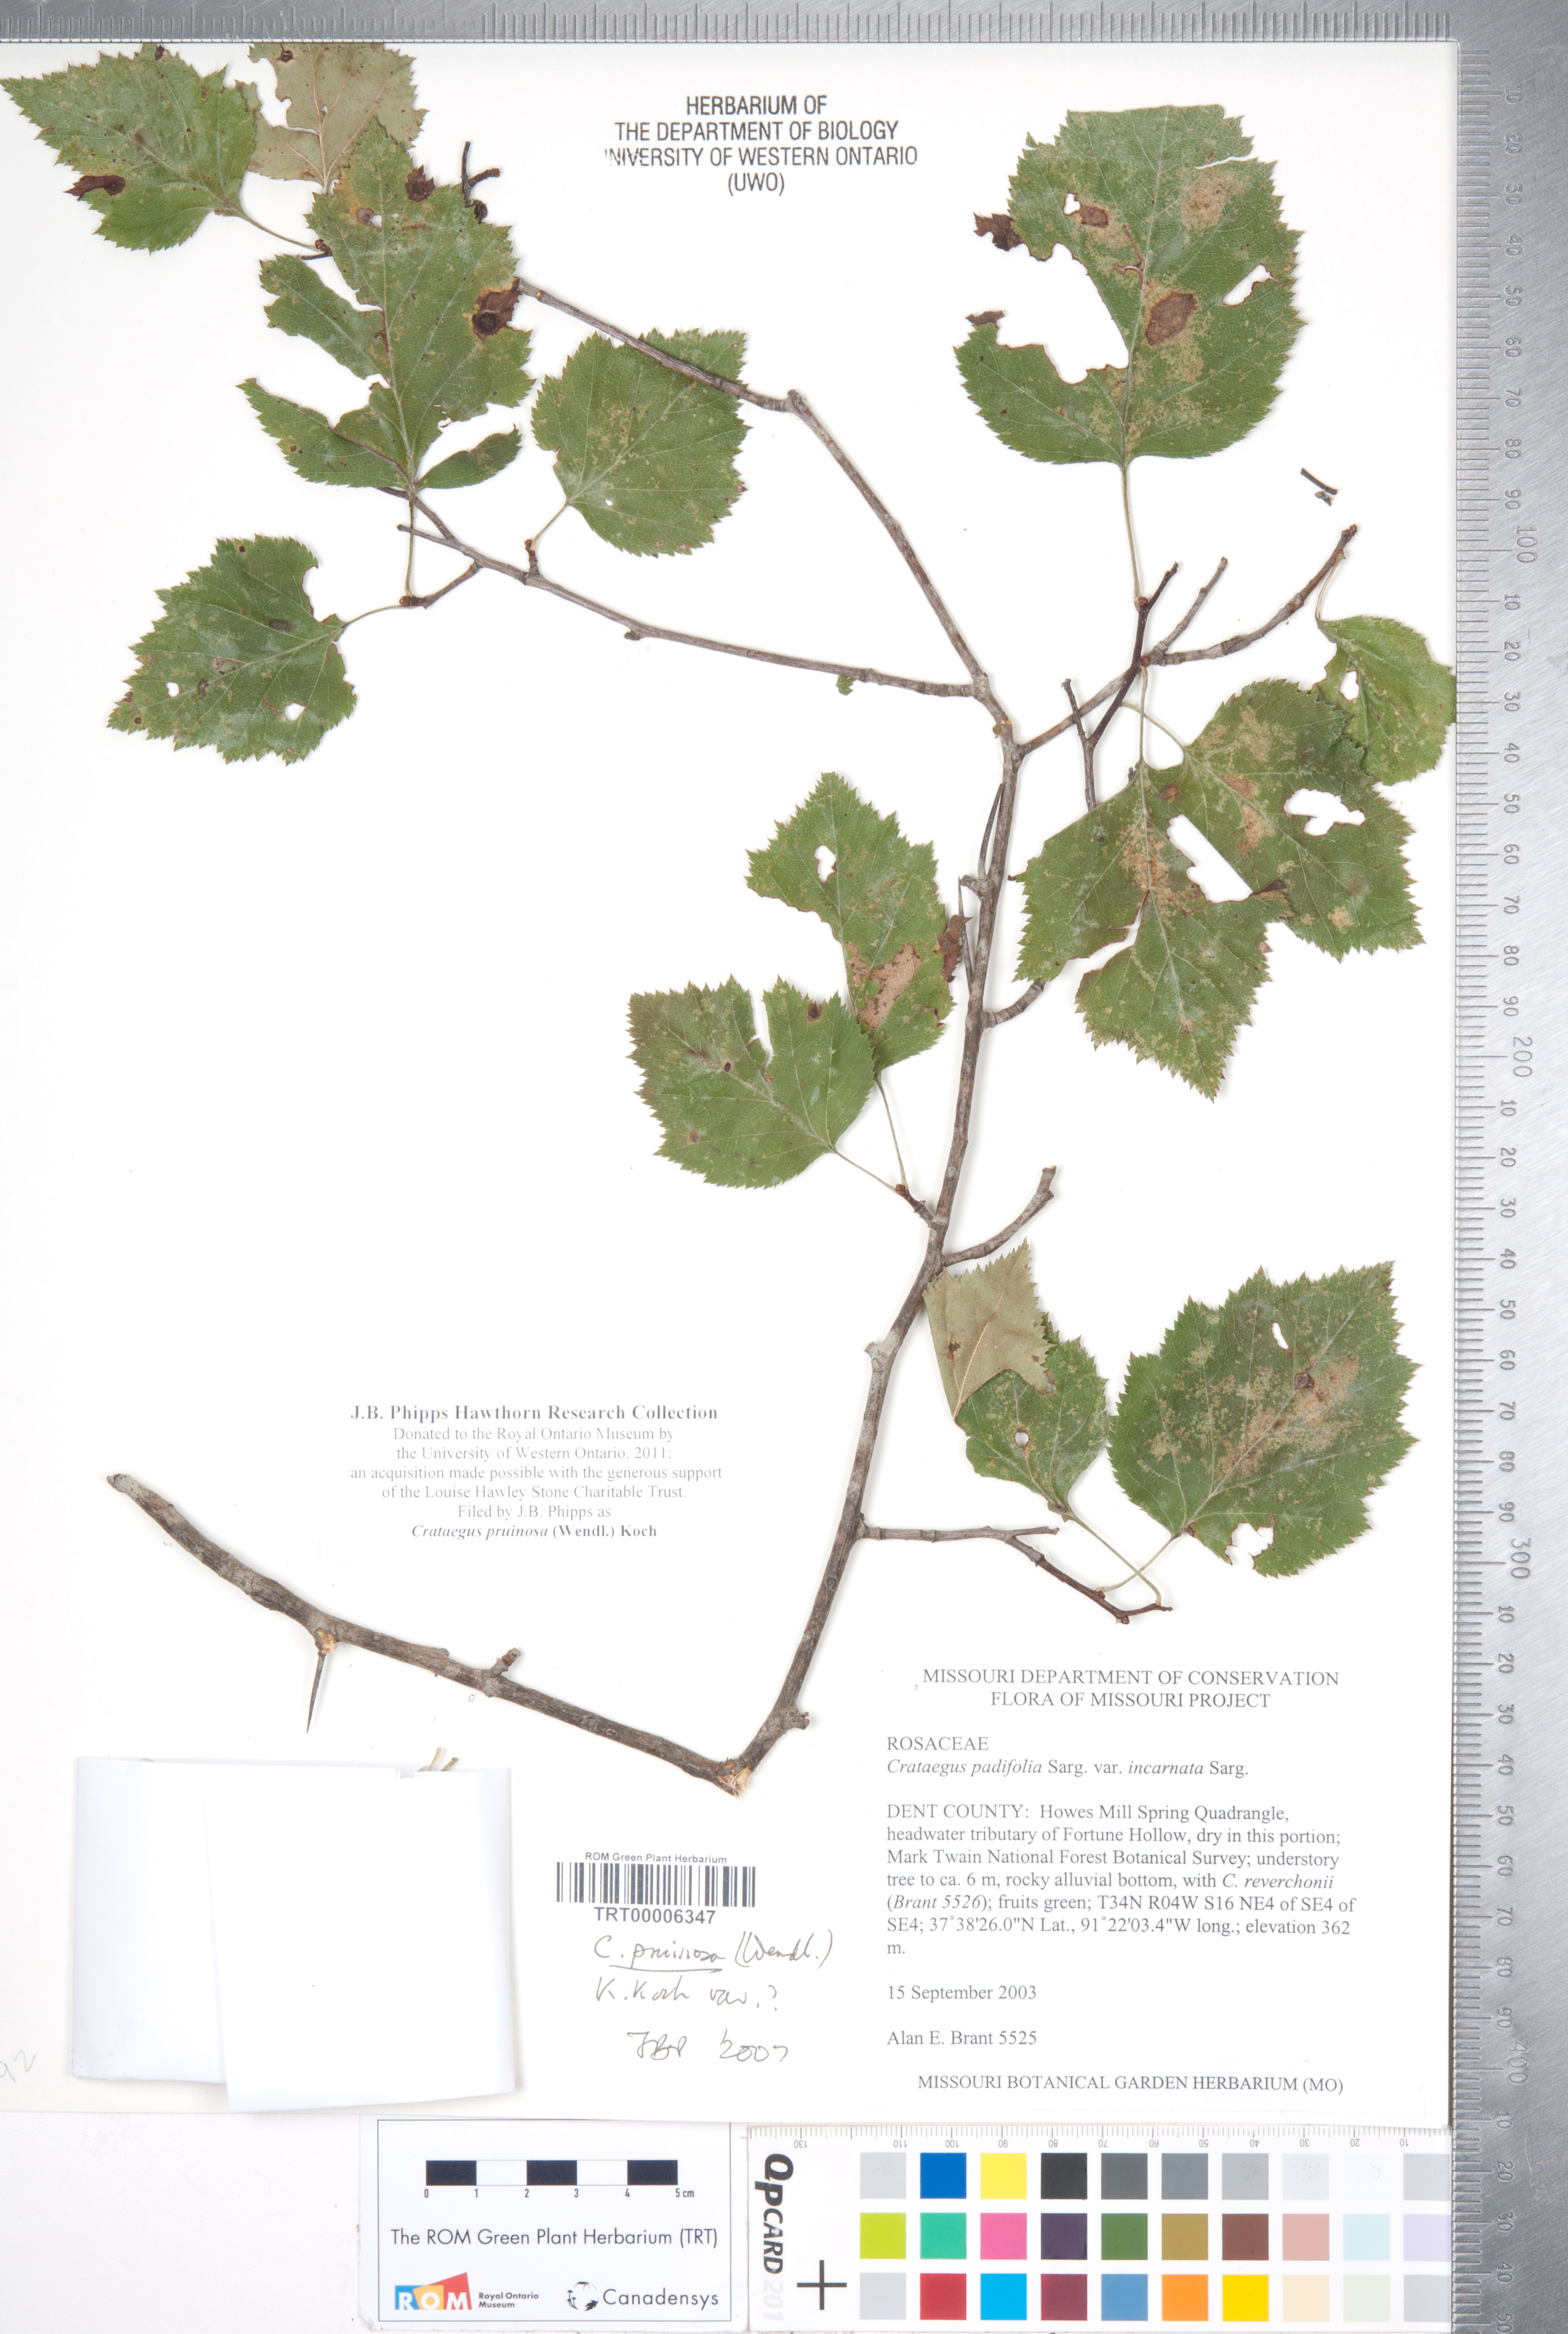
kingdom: Plantae
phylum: Tracheophyta
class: Magnoliopsida
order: Rosales
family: Rosaceae
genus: Crataegus
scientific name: Crataegus pruinosa
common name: Waxy-fruit hawthorn
